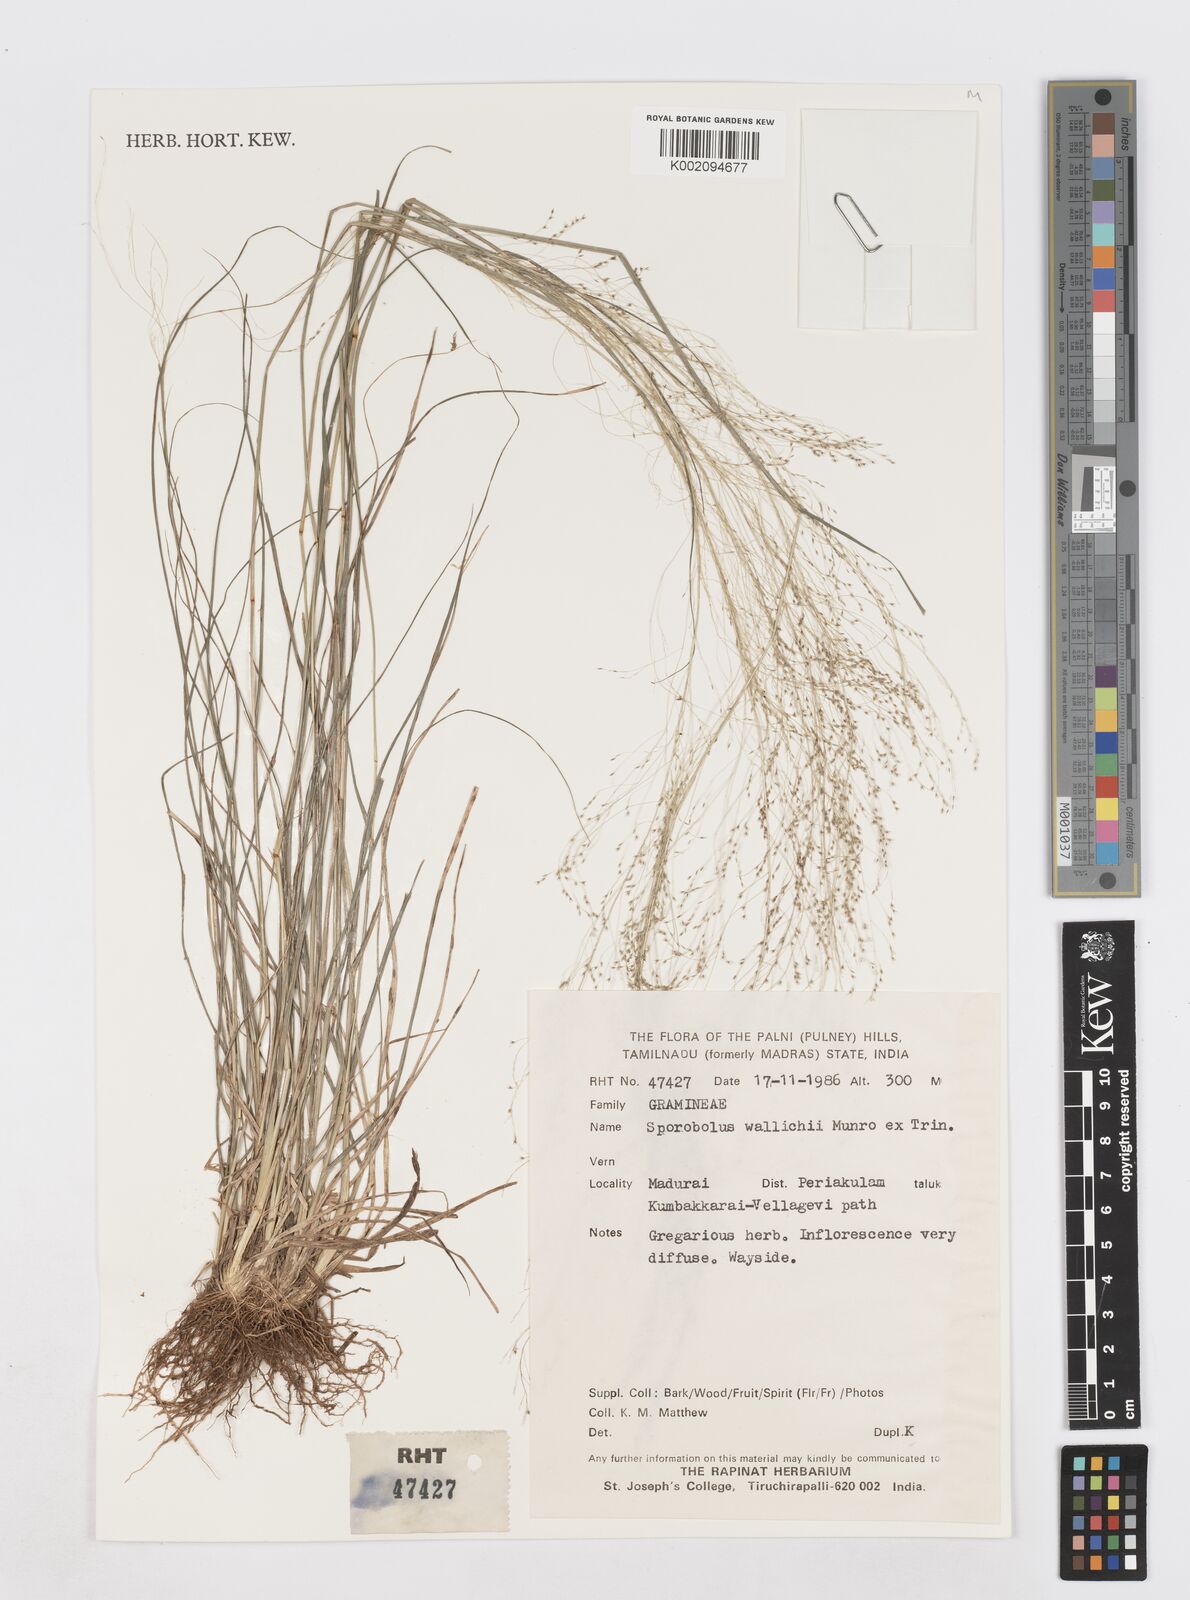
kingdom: Plantae
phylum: Tracheophyta
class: Liliopsida
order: Poales
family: Poaceae
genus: Sporobolus
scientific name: Sporobolus wallichii
